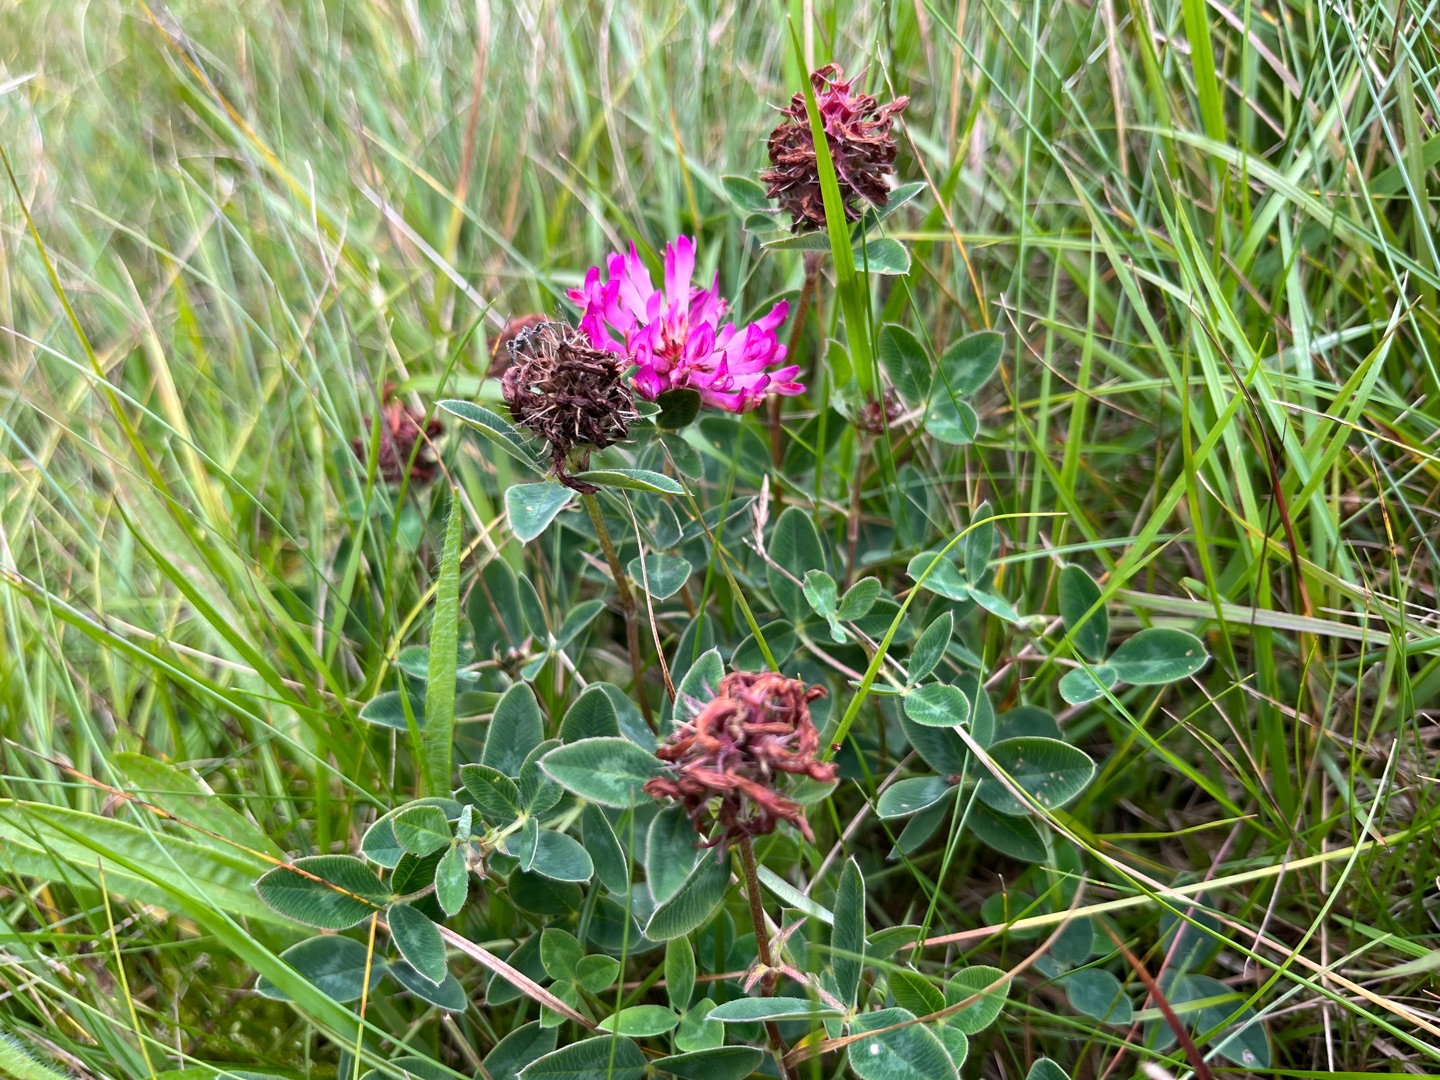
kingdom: Plantae
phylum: Tracheophyta
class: Magnoliopsida
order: Fabales
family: Fabaceae
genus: Trifolium
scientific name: Trifolium medium
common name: Bugtet kløver
